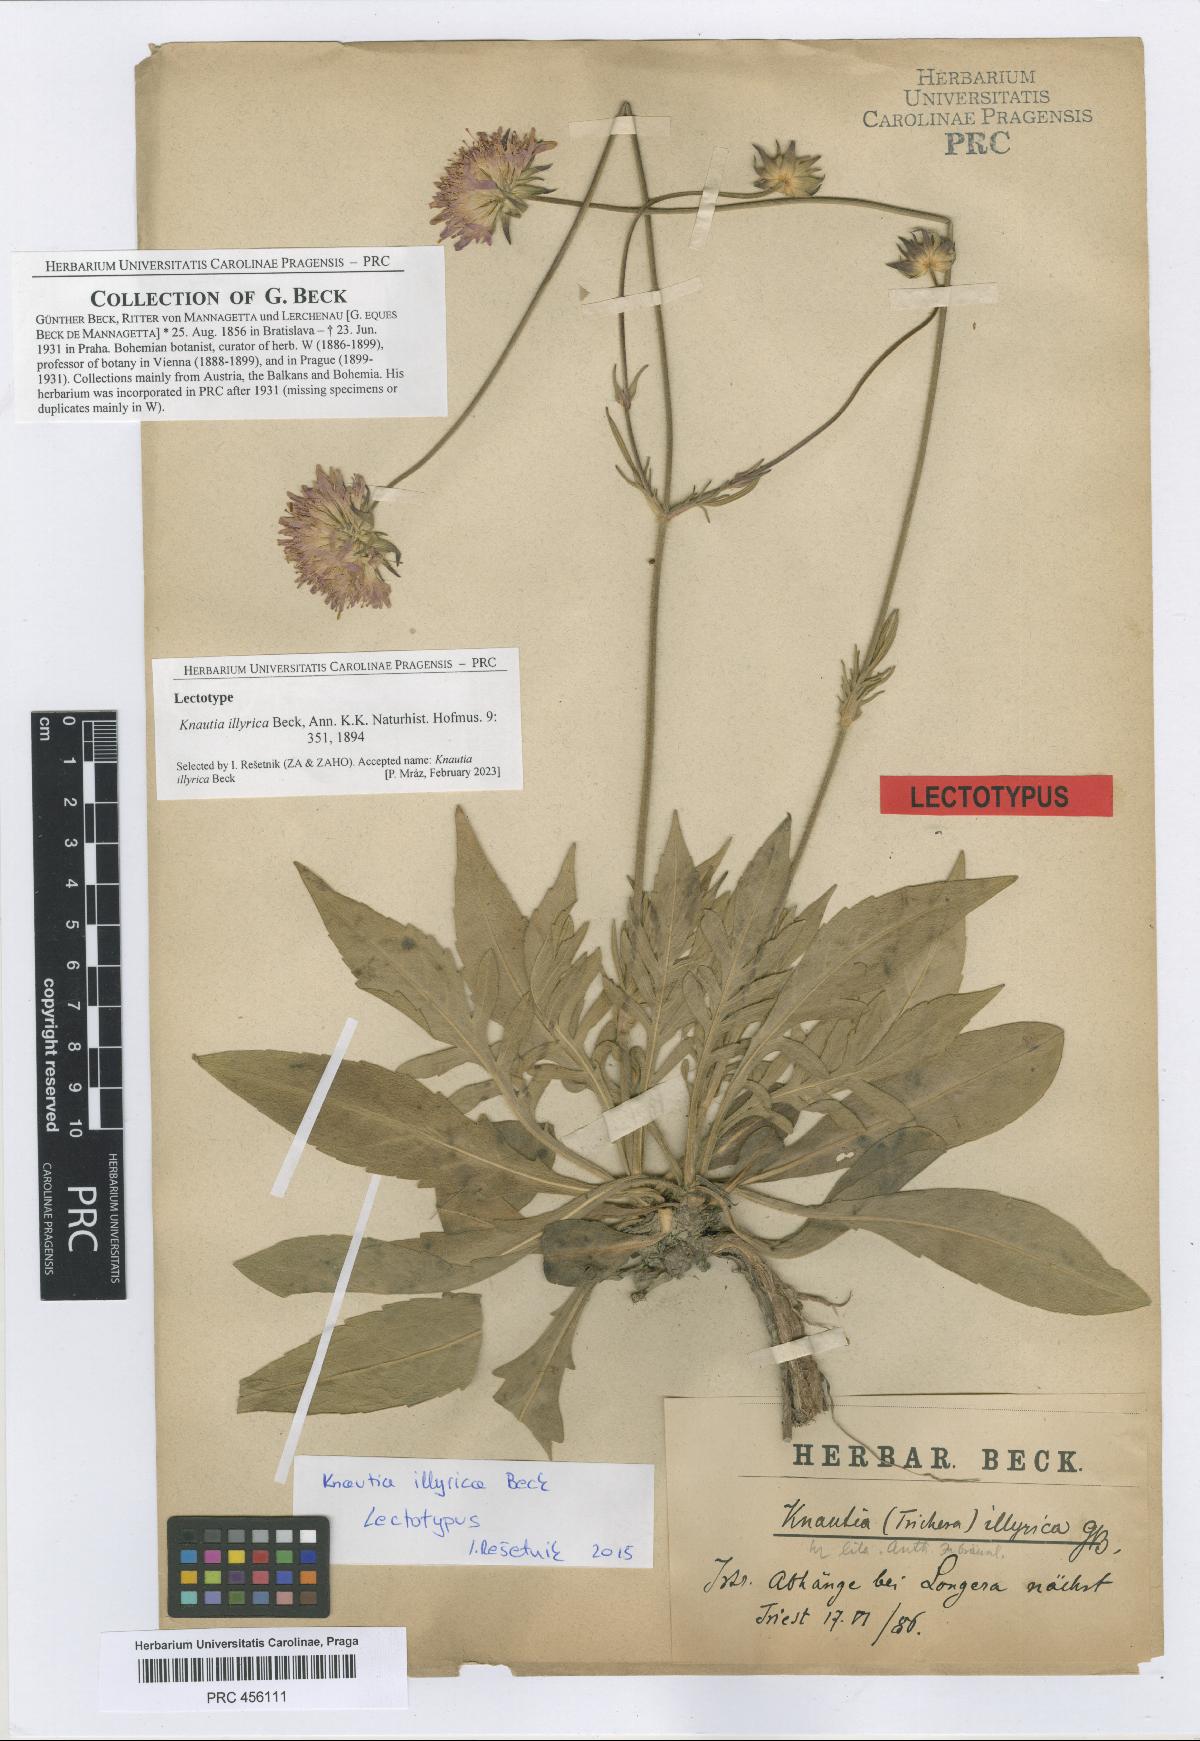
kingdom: Plantae
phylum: Tracheophyta
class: Magnoliopsida
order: Dipsacales
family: Caprifoliaceae
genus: Knautia
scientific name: Knautia illyrica
